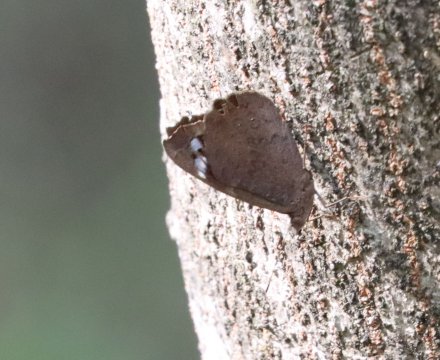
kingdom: Animalia
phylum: Arthropoda
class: Insecta
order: Lepidoptera
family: Nymphalidae
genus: Eunica
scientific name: Eunica tatila
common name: Florida Purplewing
